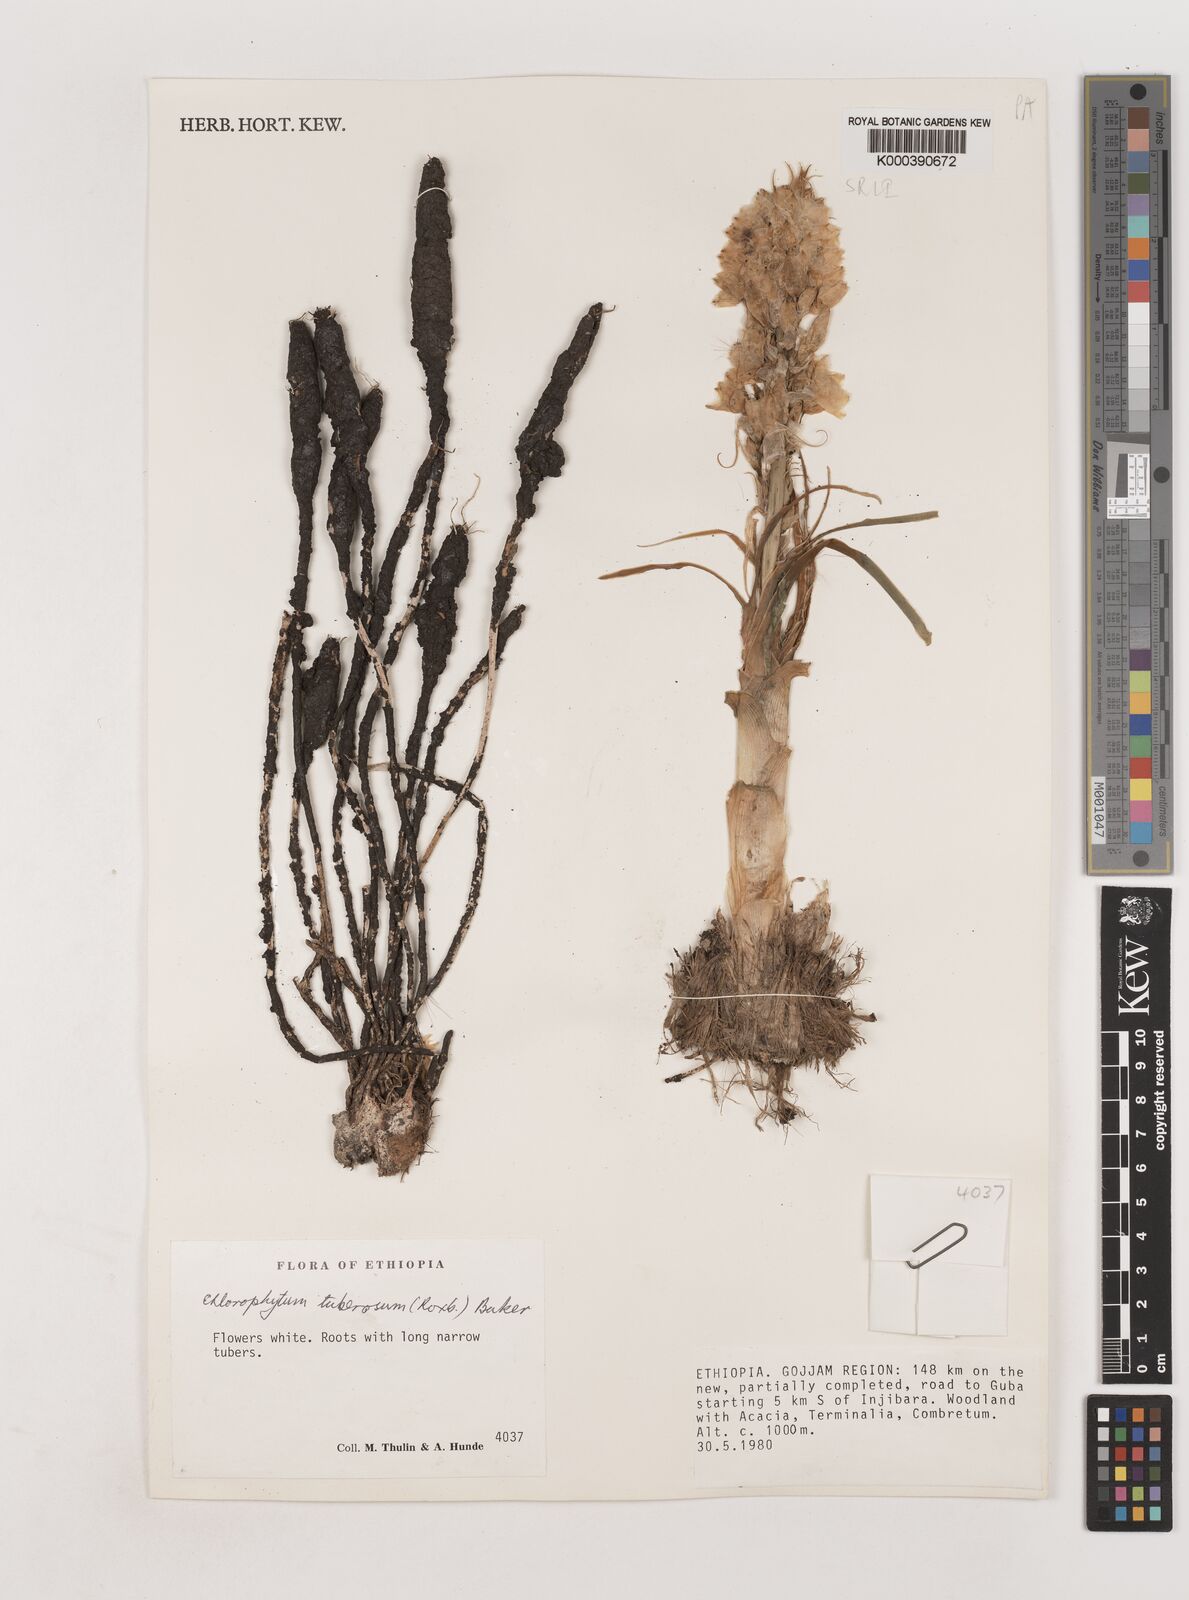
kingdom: Plantae
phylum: Tracheophyta
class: Liliopsida
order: Asparagales
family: Asparagaceae
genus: Chlorophytum
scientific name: Chlorophytum tuberosum
